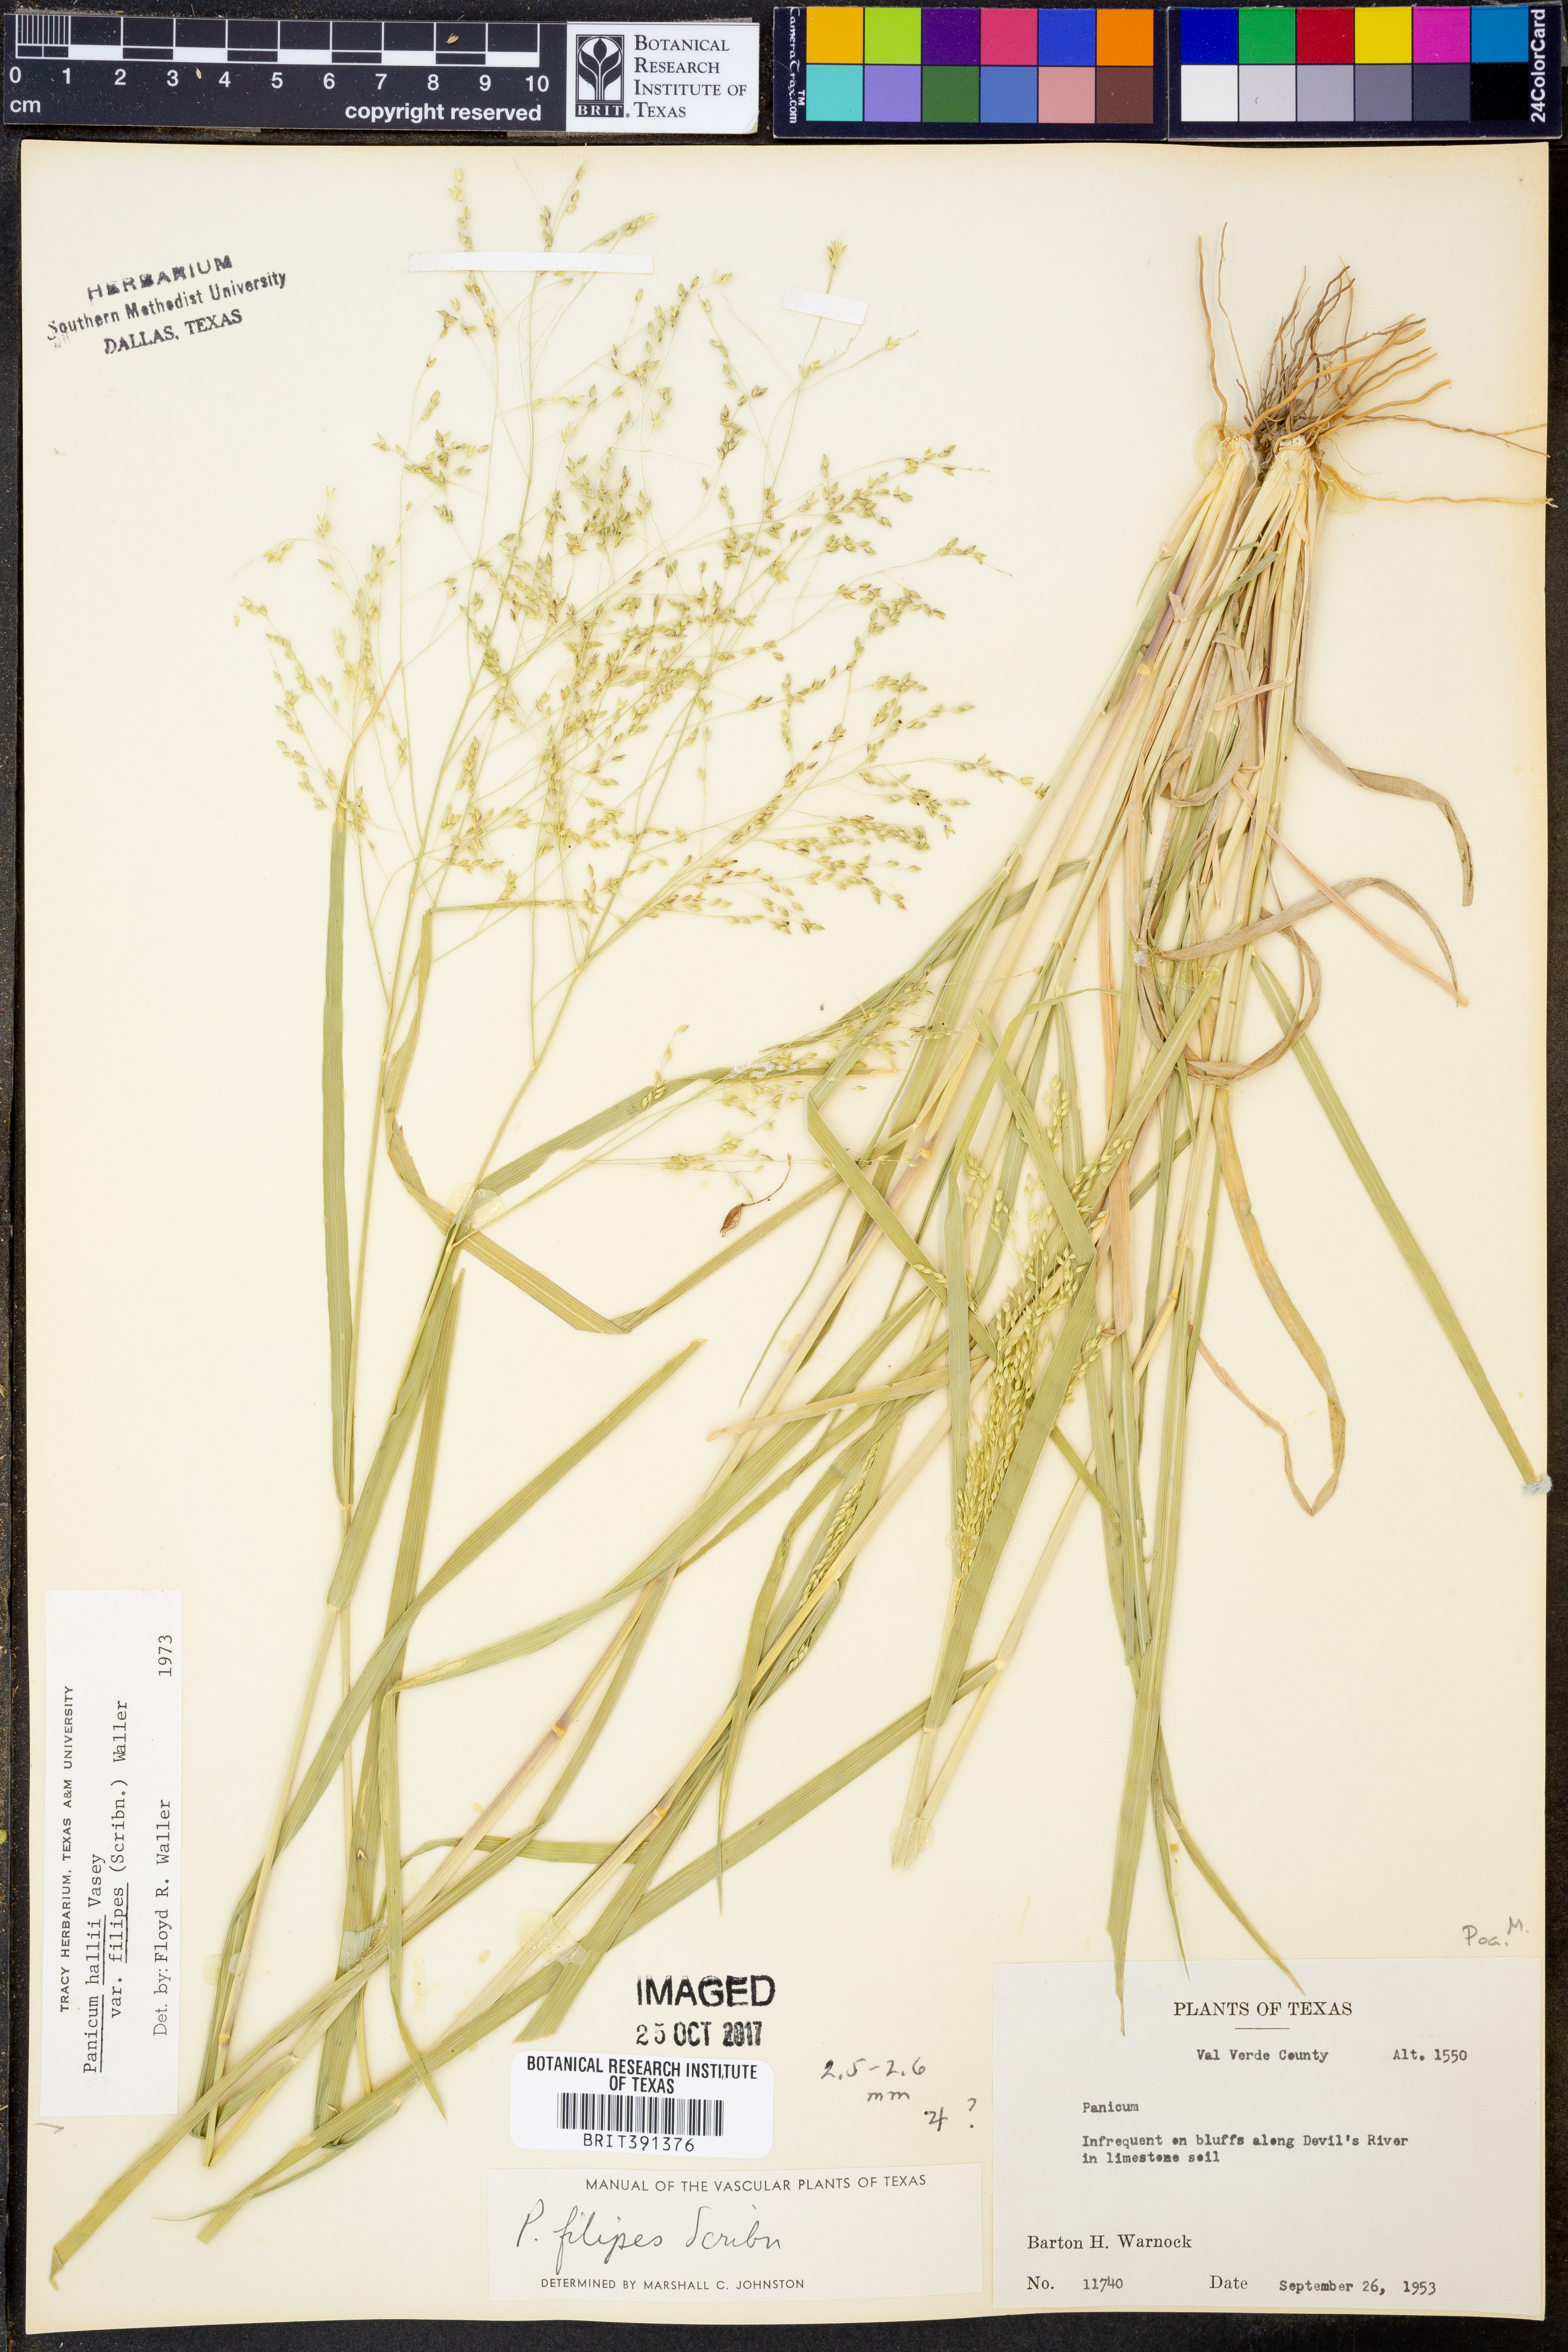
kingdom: Plantae
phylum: Tracheophyta
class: Liliopsida
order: Poales
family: Poaceae
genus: Panicum
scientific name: Panicum hallii
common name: Hall's witchgrass
